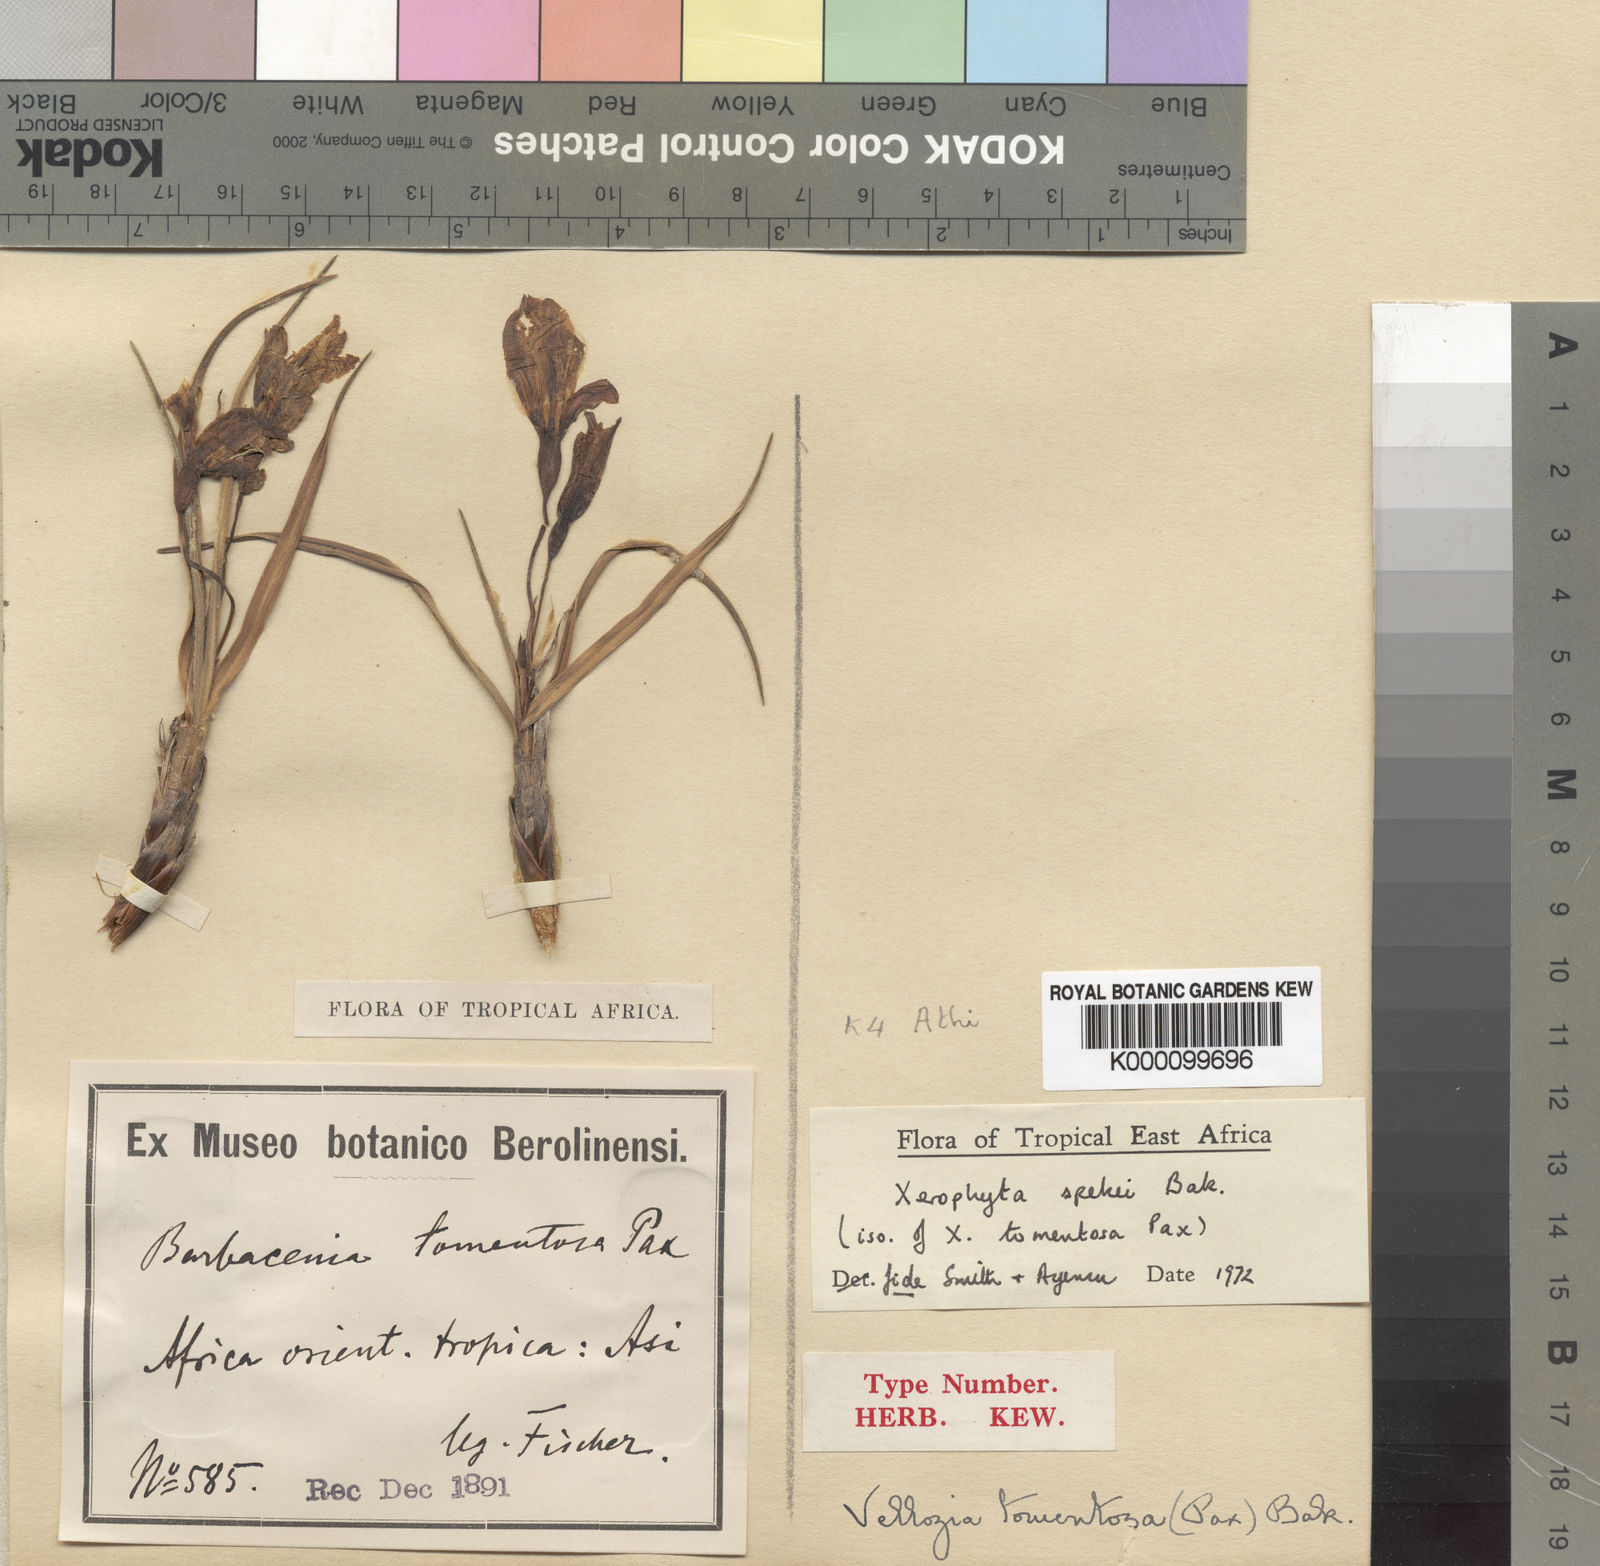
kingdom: Plantae
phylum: Tracheophyta
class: Liliopsida
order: Pandanales
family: Velloziaceae
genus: Xerophyta
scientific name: Xerophyta spekei
